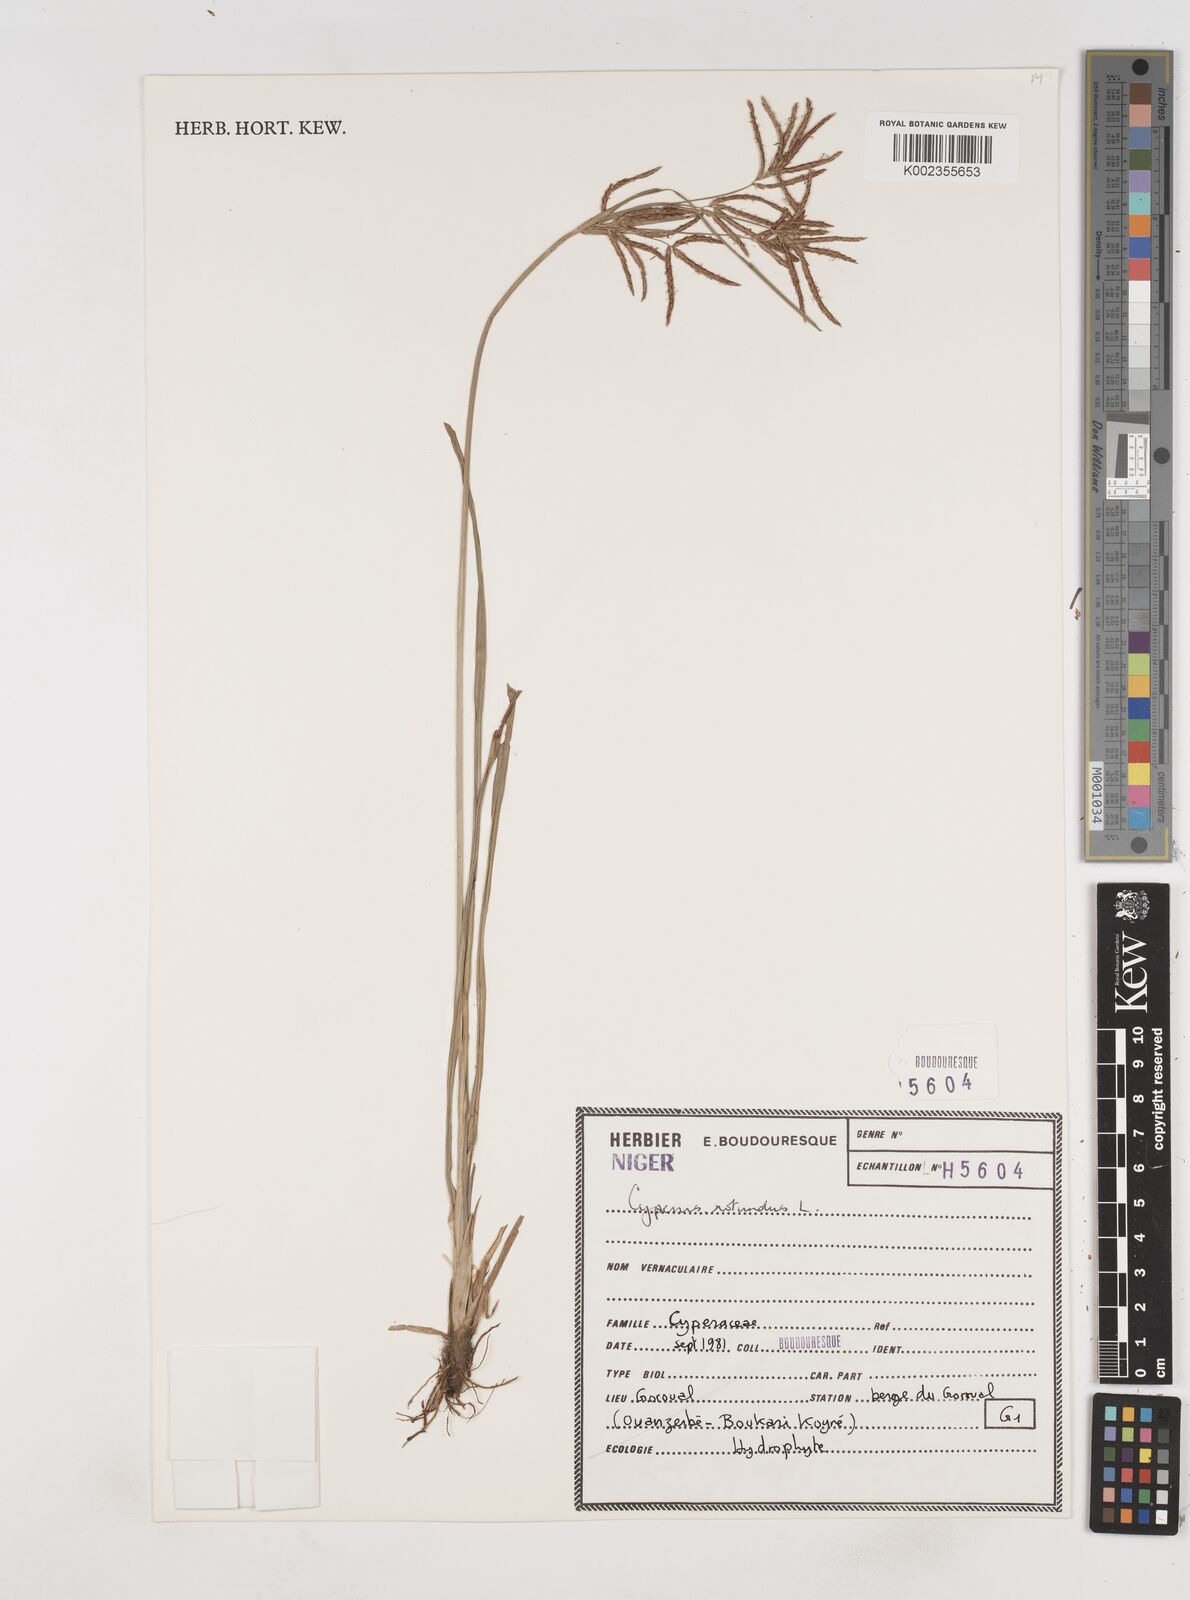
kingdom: Plantae
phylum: Tracheophyta
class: Liliopsida
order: Poales
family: Cyperaceae
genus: Cyperus
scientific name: Cyperus rotundus
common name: Nutgrass
